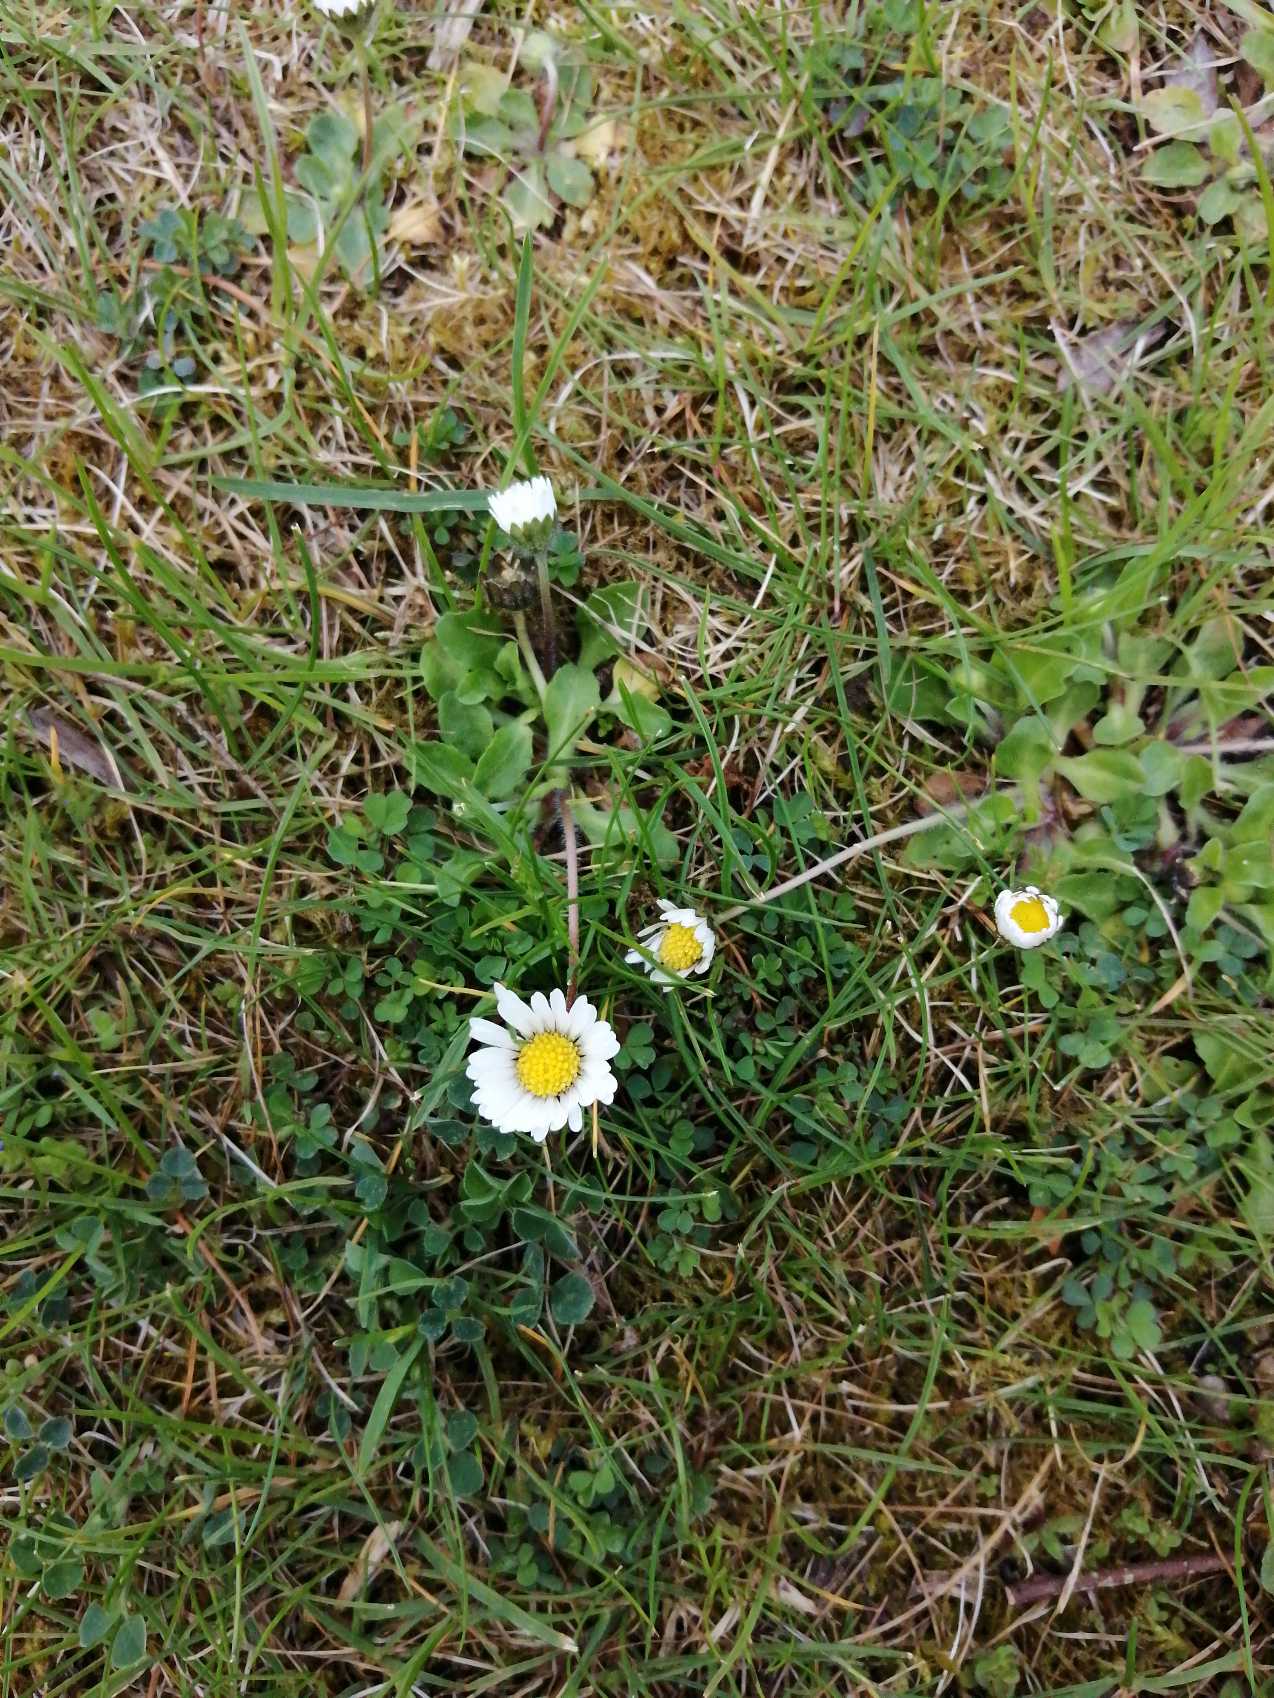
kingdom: Plantae
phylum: Tracheophyta
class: Magnoliopsida
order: Asterales
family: Asteraceae
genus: Bellis
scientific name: Bellis perennis
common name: Tusindfryd
